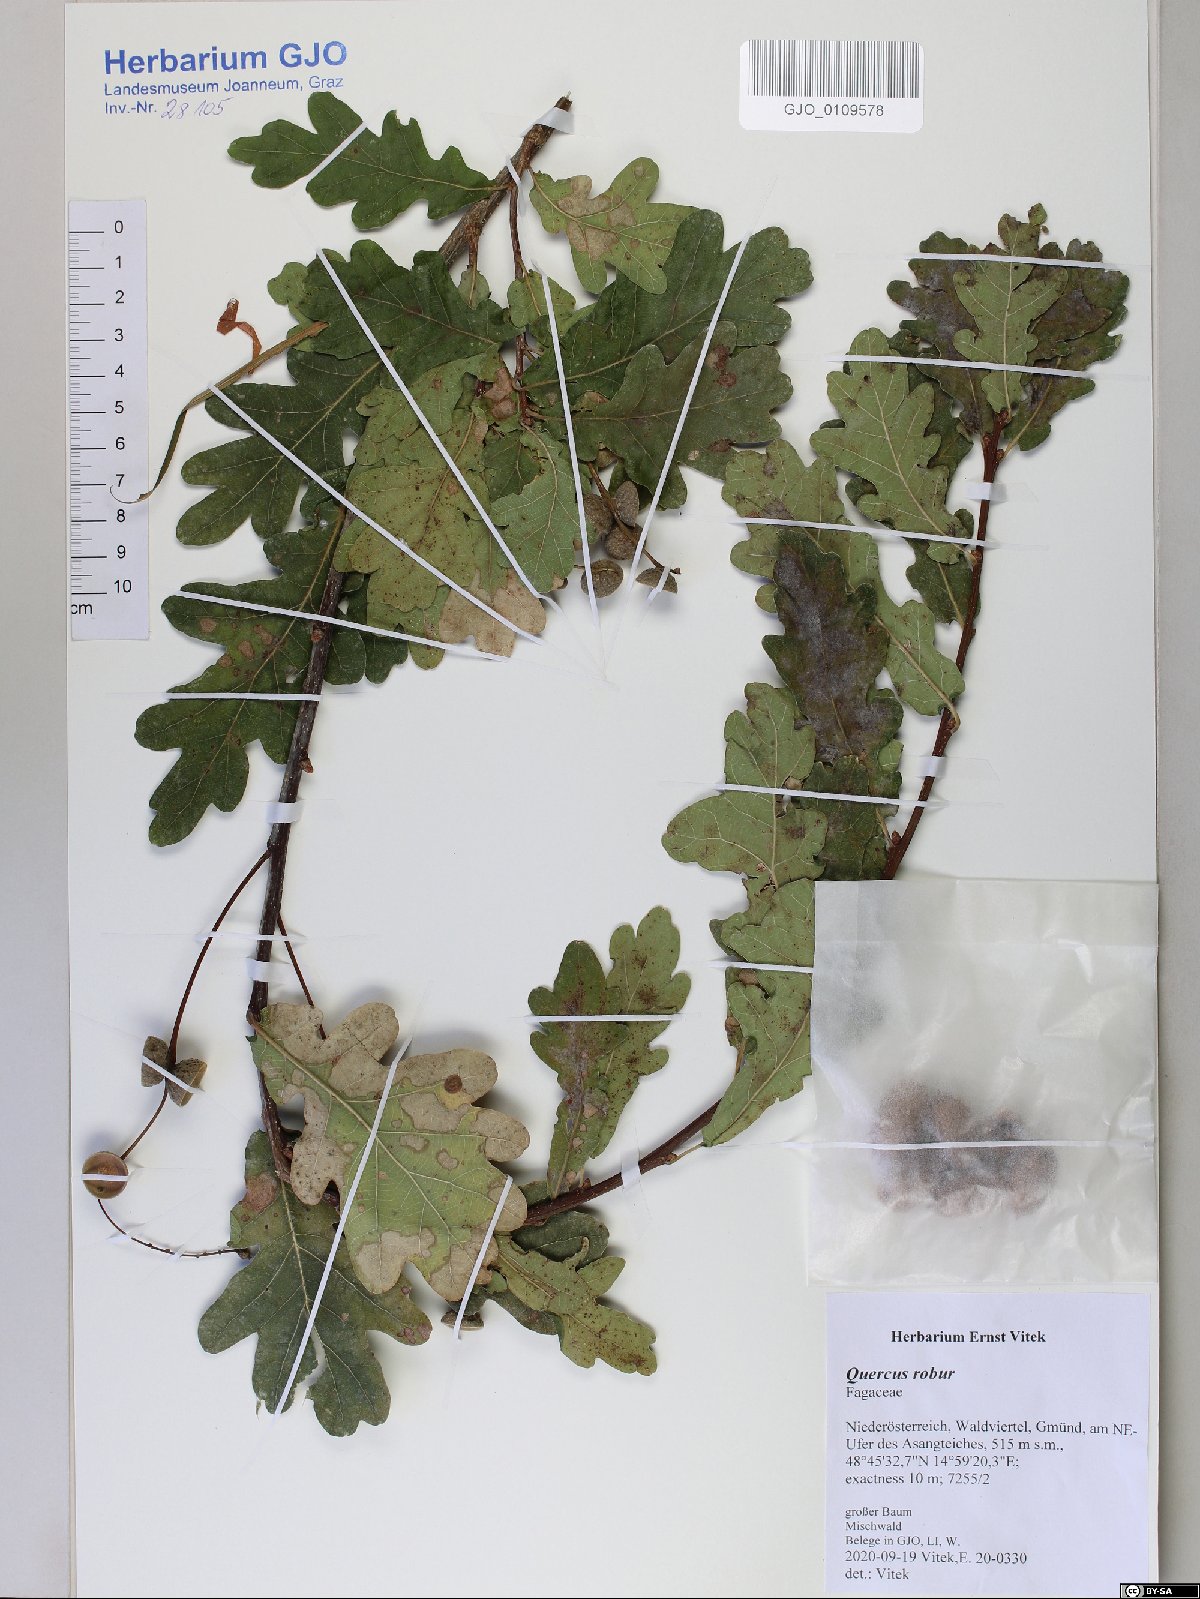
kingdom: Plantae
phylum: Tracheophyta
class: Magnoliopsida
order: Fagales
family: Fagaceae
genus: Quercus
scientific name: Quercus robur
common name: Pedunculate oak
